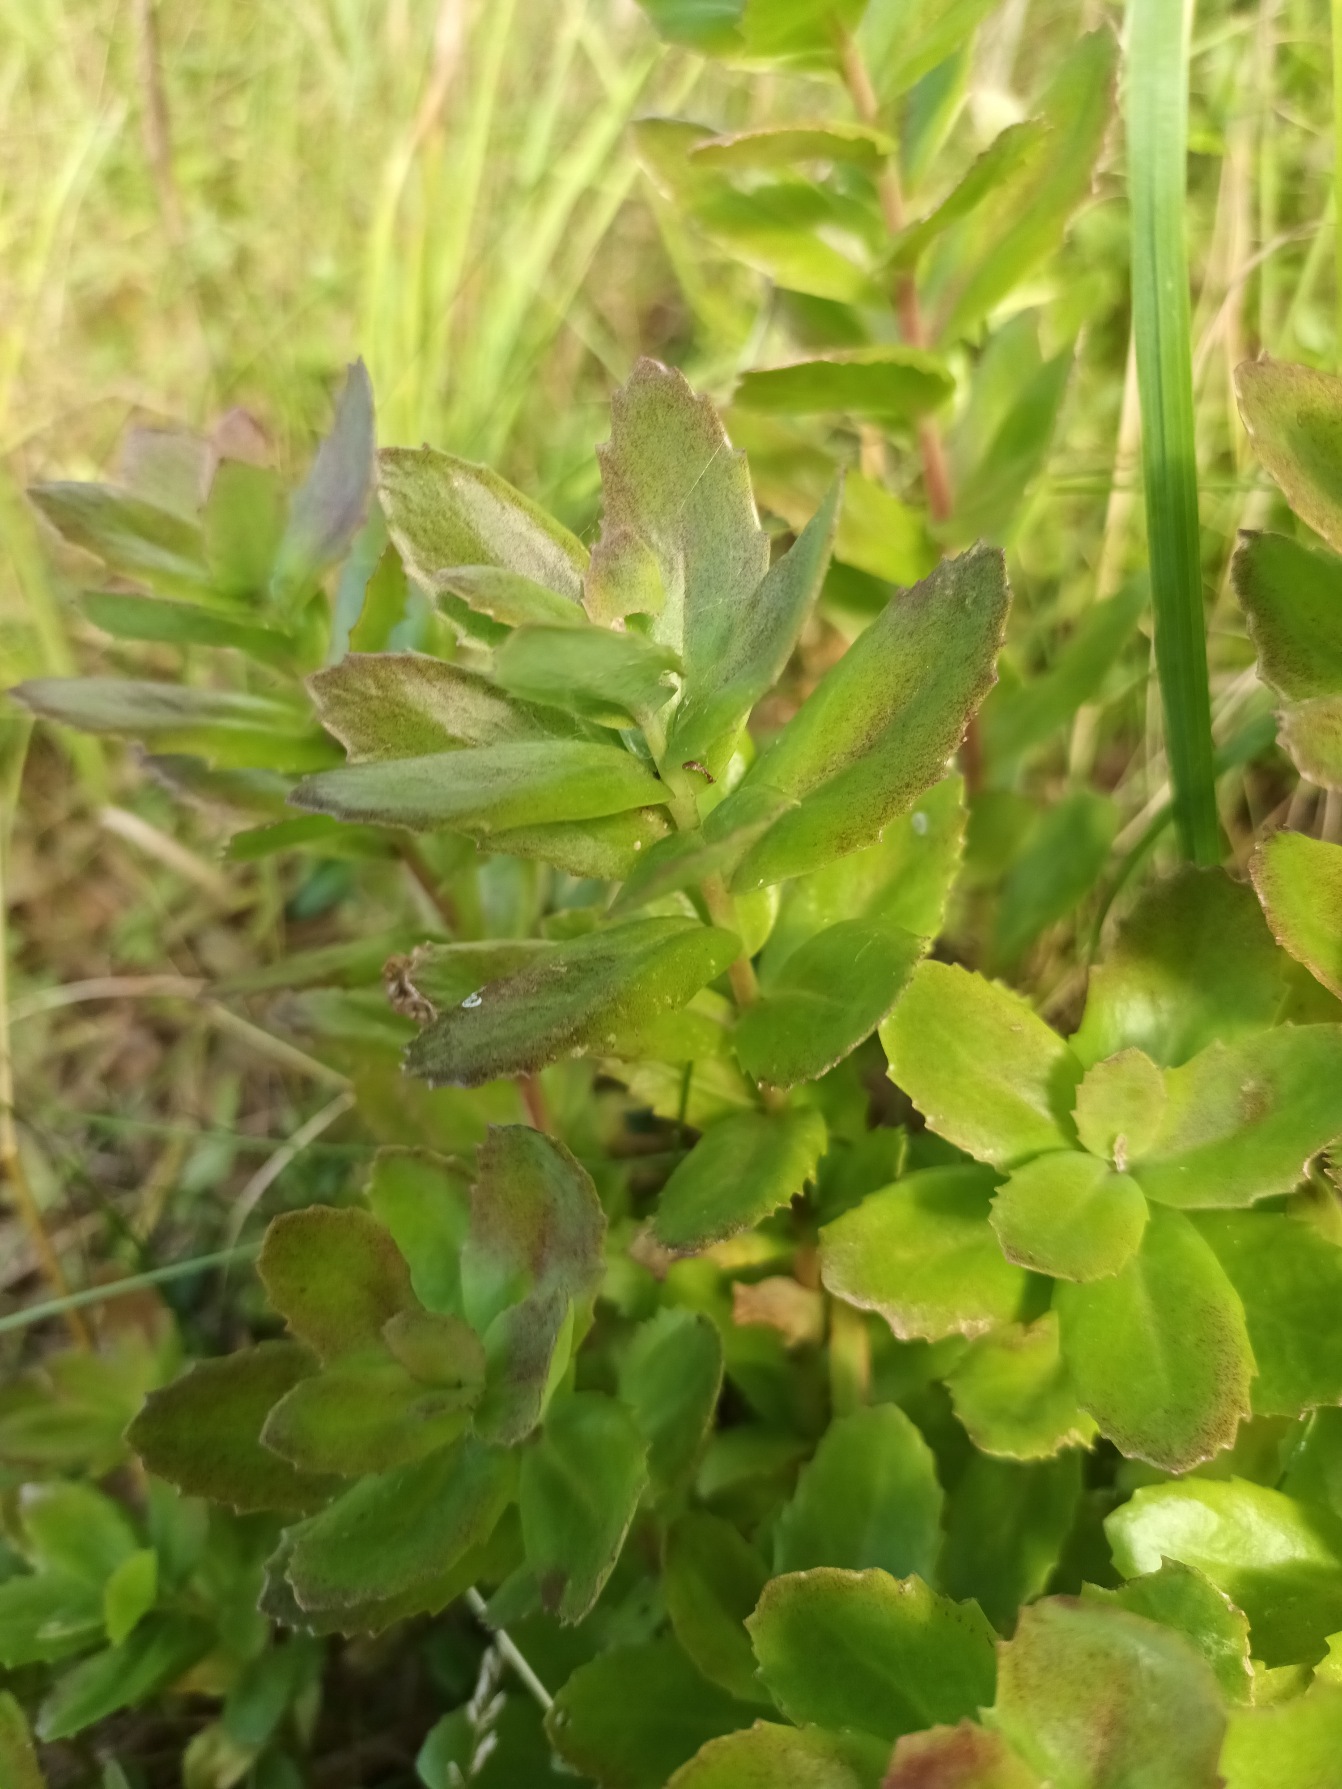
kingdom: Plantae
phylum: Tracheophyta
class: Magnoliopsida
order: Saxifragales
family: Crassulaceae
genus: Hylotelephium
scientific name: Hylotelephium telephium
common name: Rød sankthansurt
